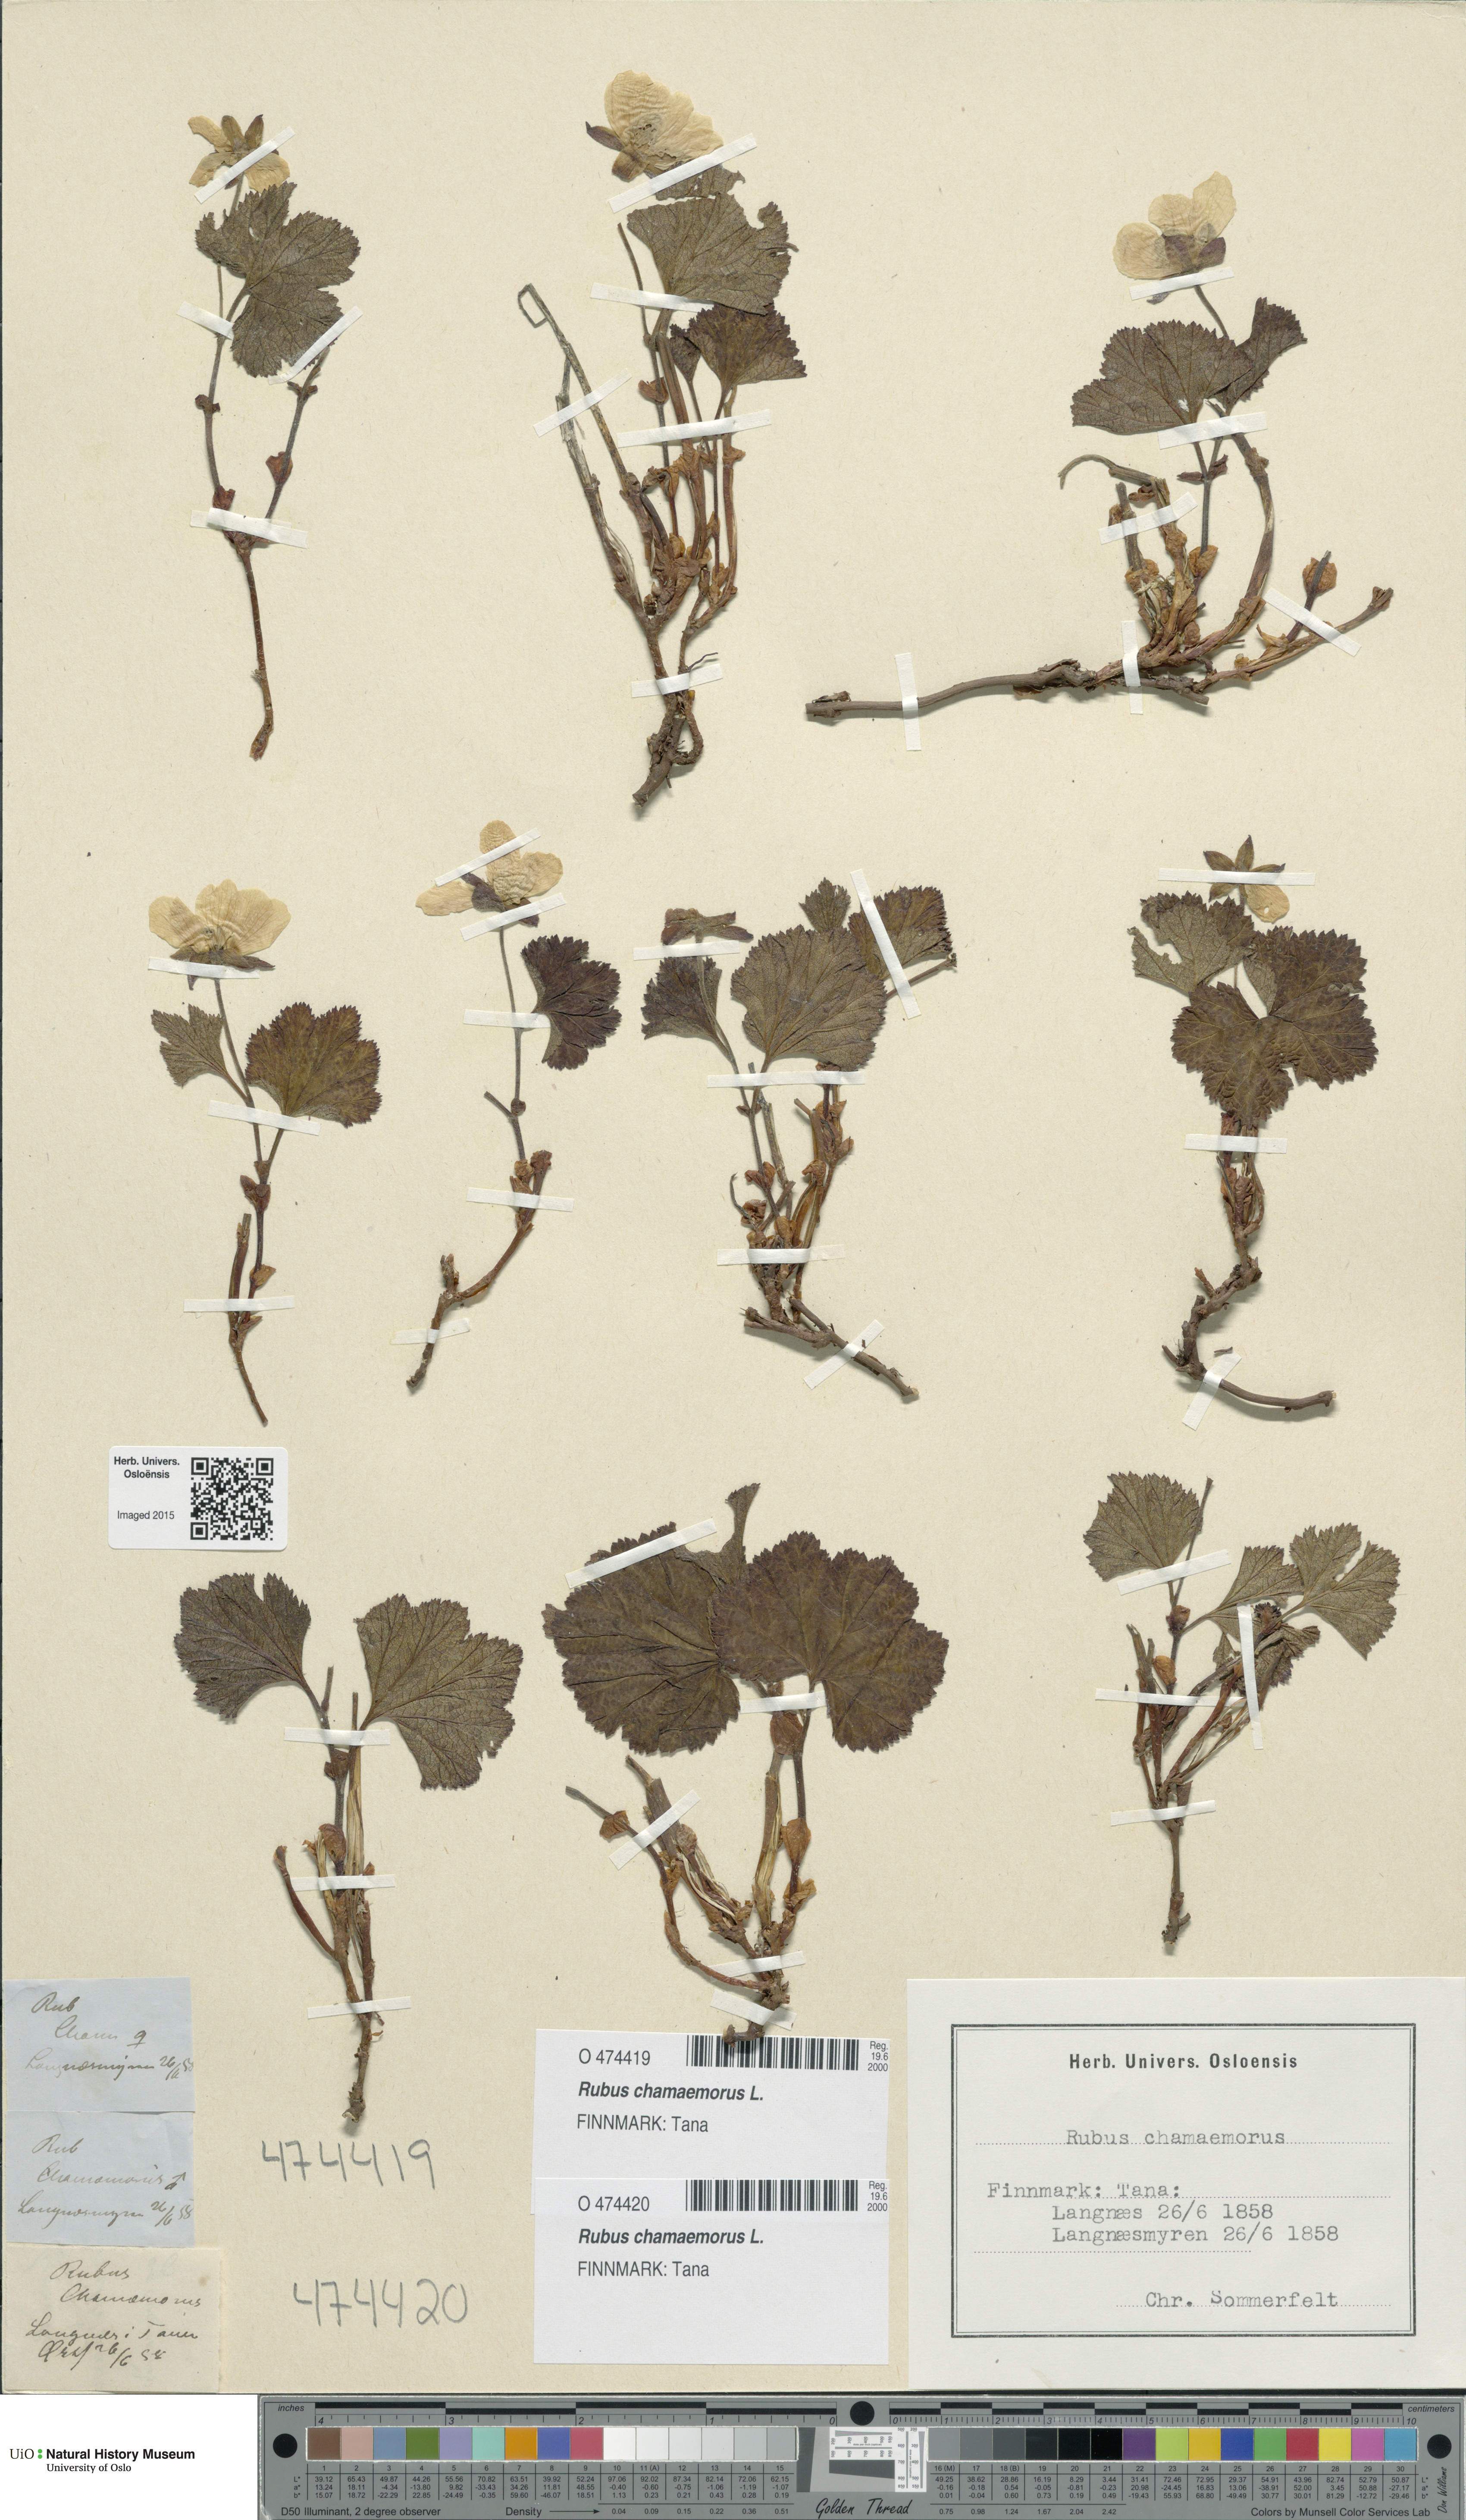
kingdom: Plantae
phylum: Tracheophyta
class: Magnoliopsida
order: Rosales
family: Rosaceae
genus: Rubus
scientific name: Rubus chamaemorus
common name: Cloudberry
